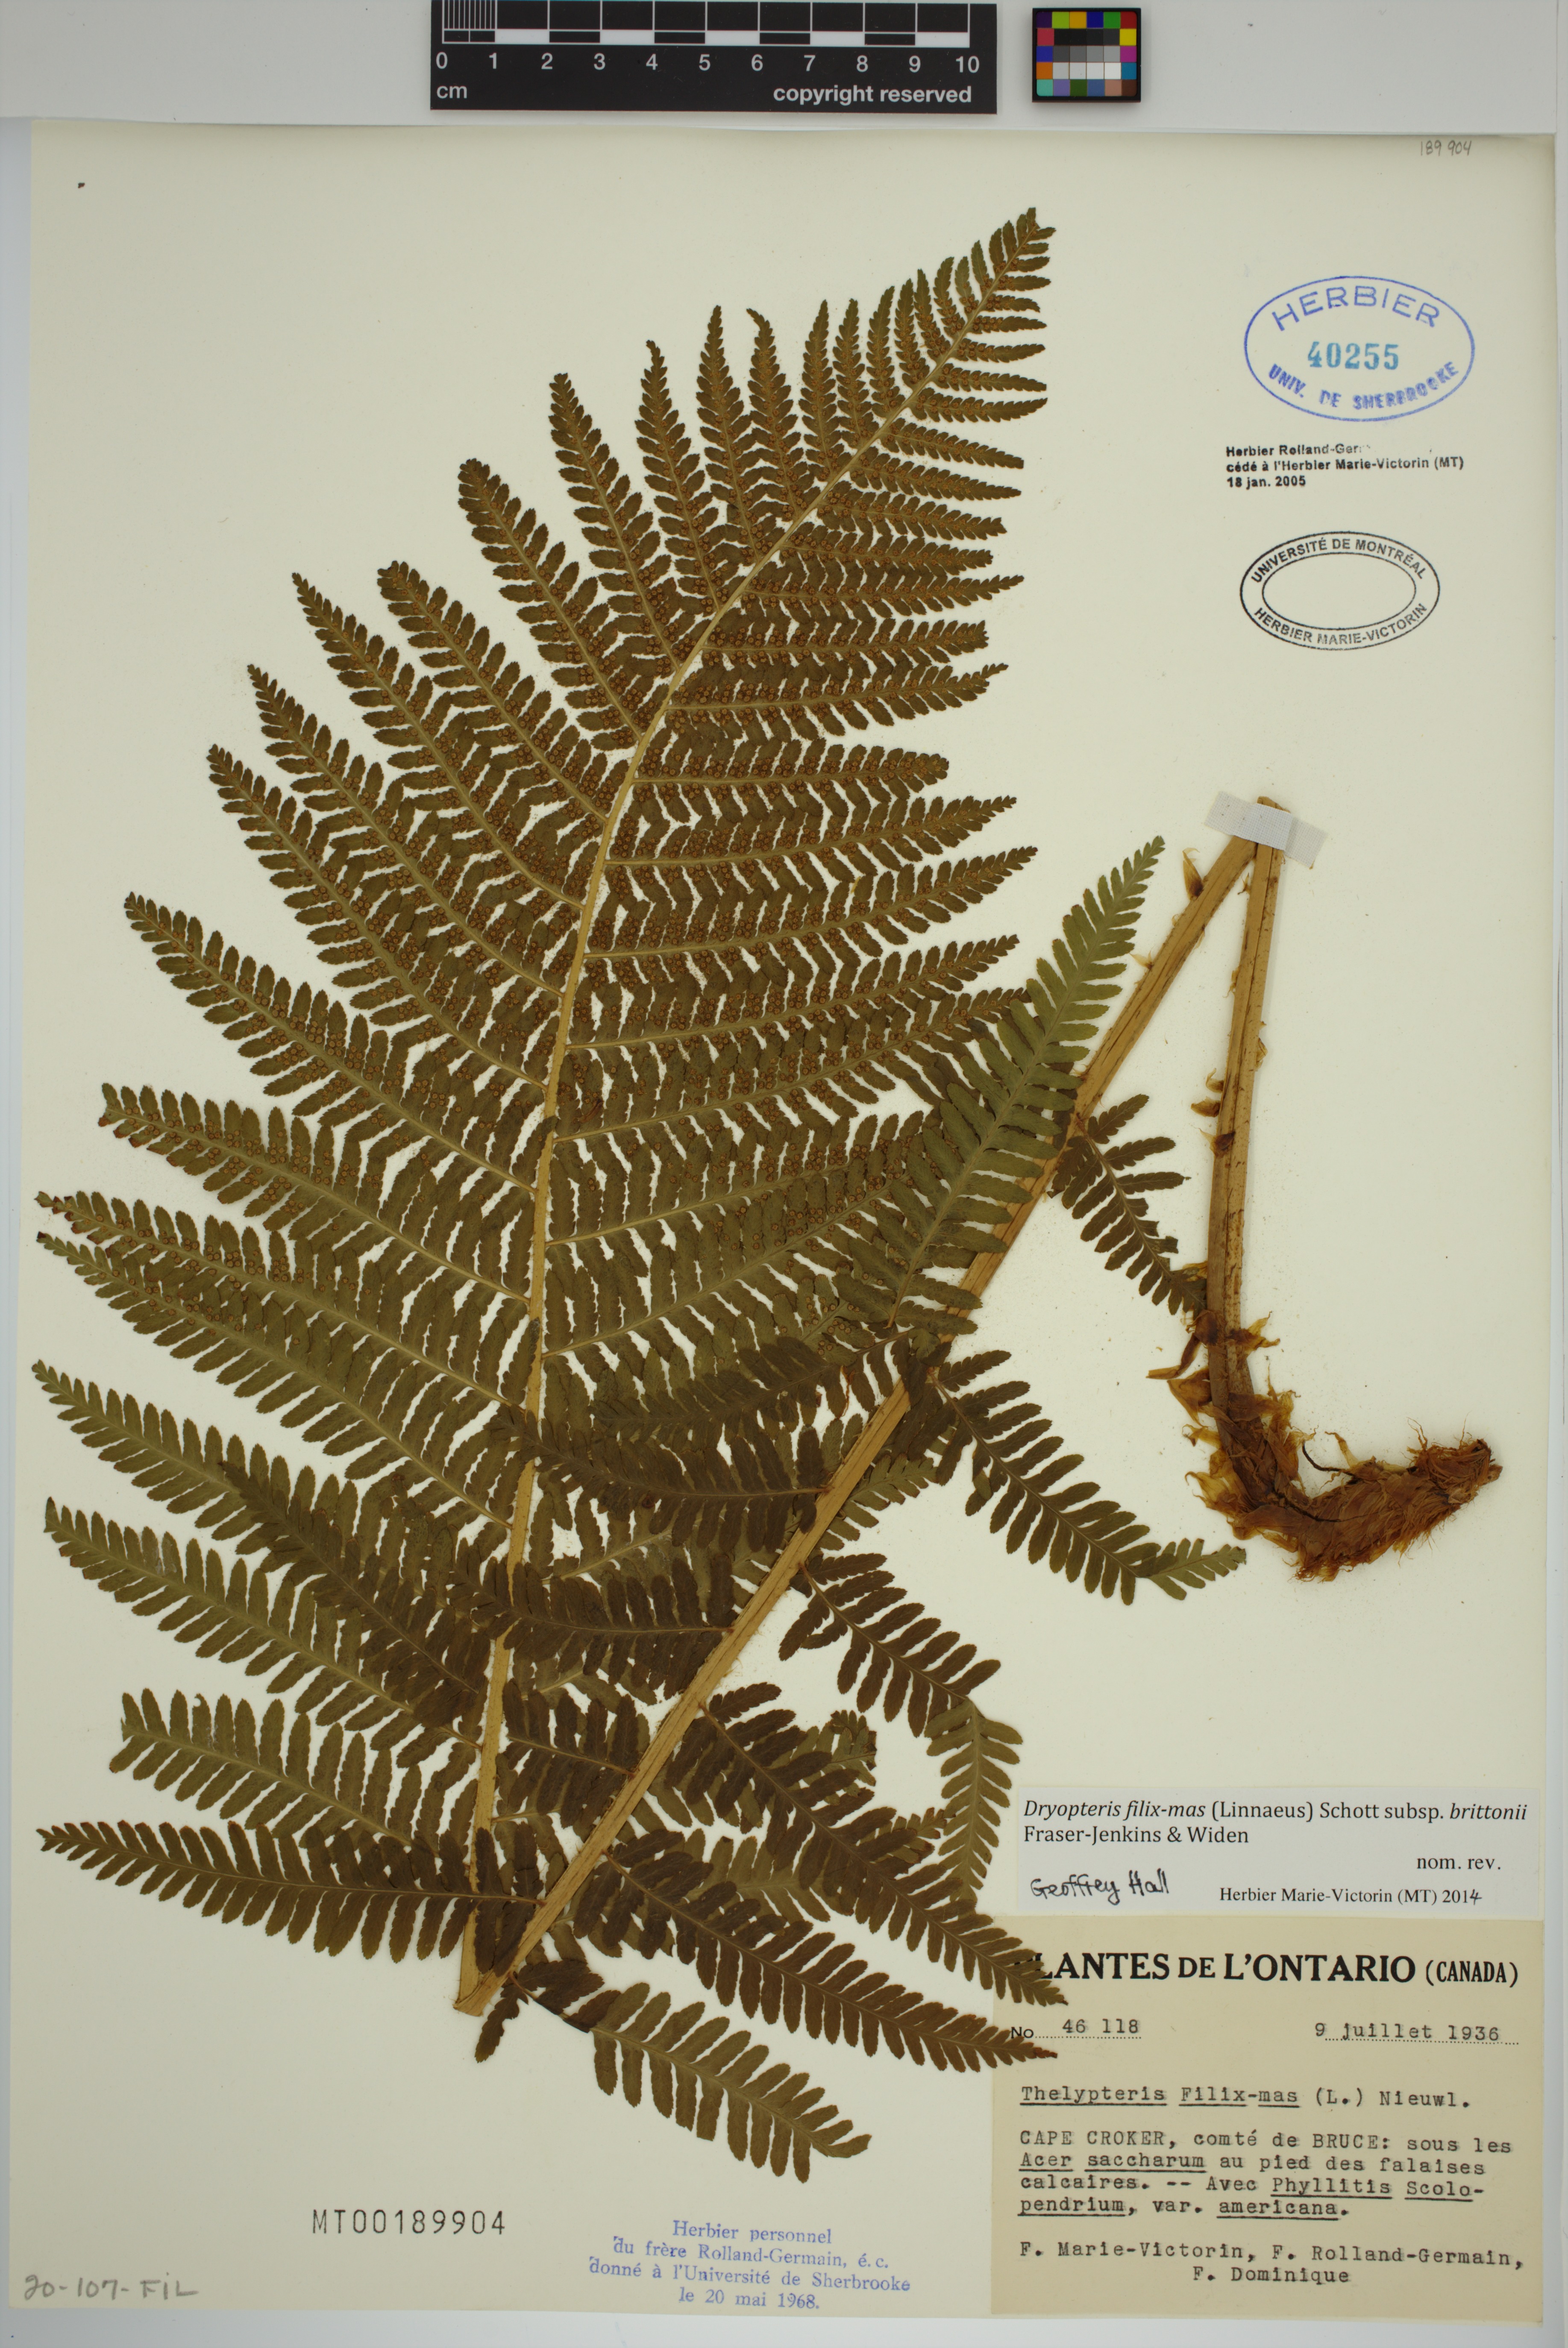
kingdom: Plantae
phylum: Tracheophyta
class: Polypodiopsida
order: Polypodiales
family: Dryopteridaceae
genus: Dryopteris
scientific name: Dryopteris filix-mas
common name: Male fern
